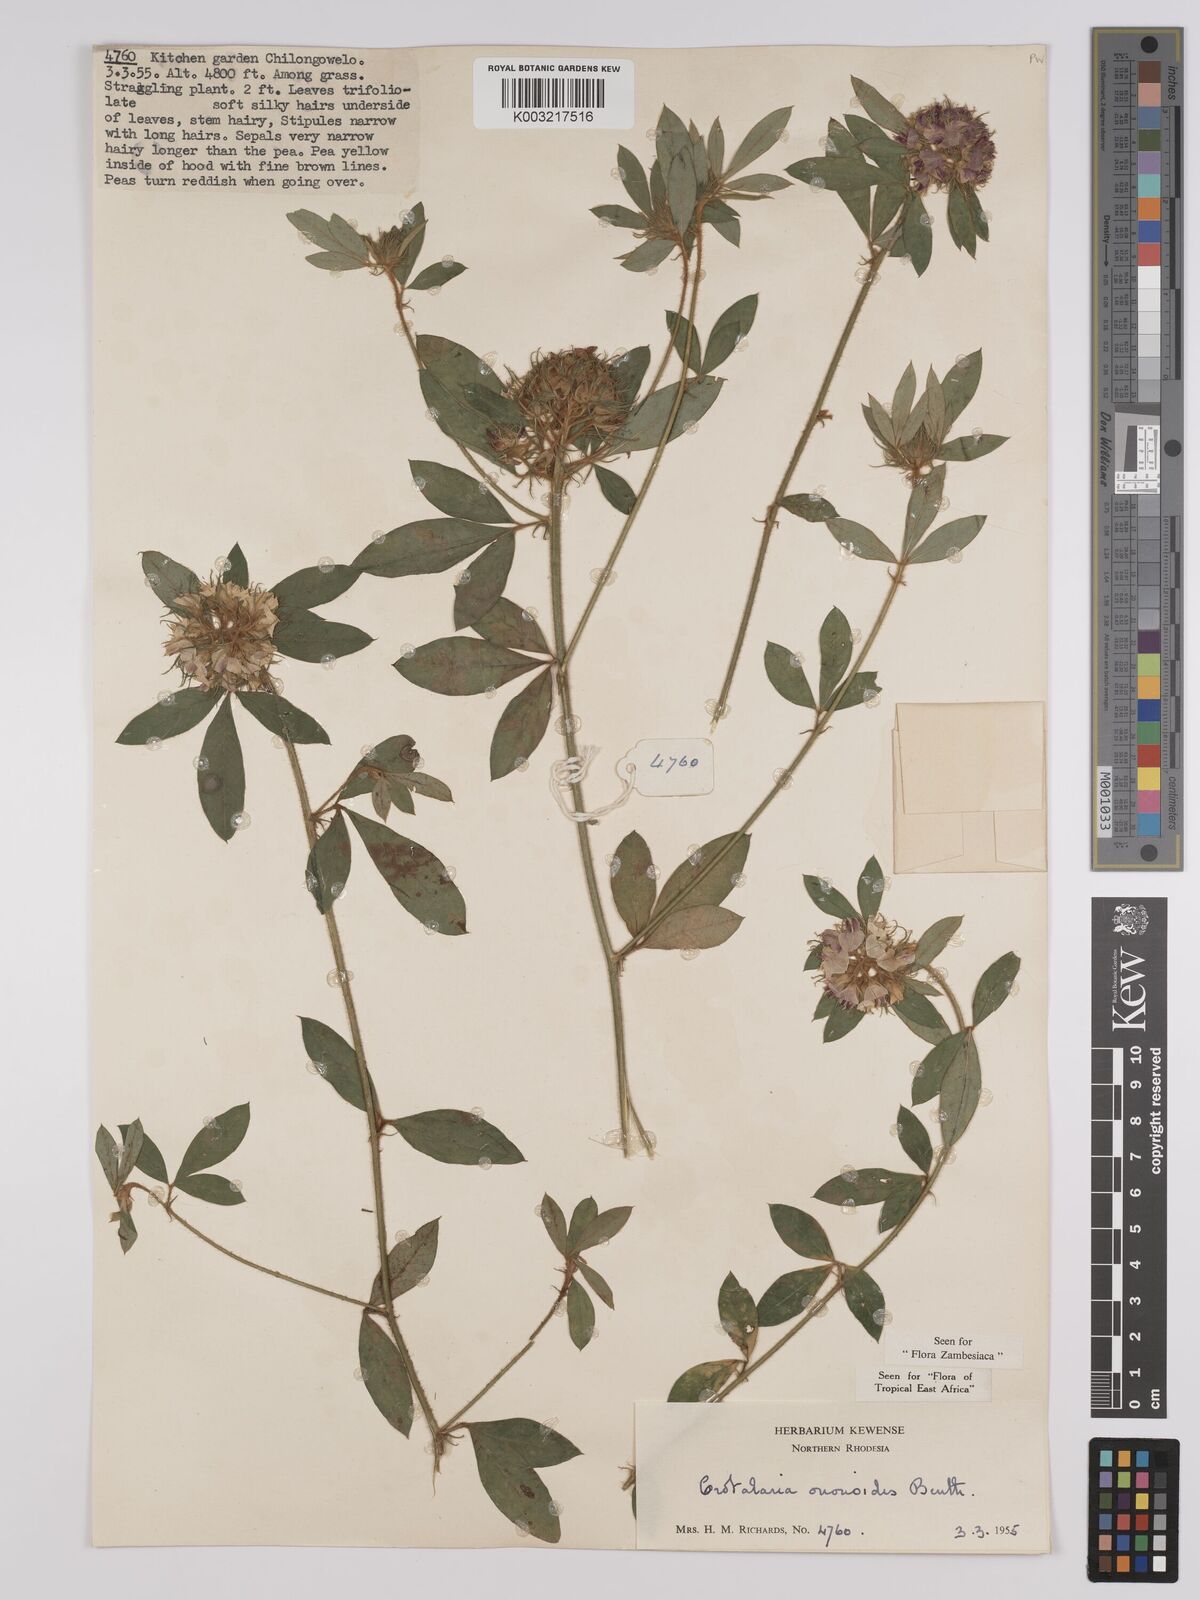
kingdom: Plantae
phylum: Tracheophyta
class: Magnoliopsida
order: Fabales
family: Fabaceae
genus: Crotalaria
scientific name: Crotalaria ononoides
